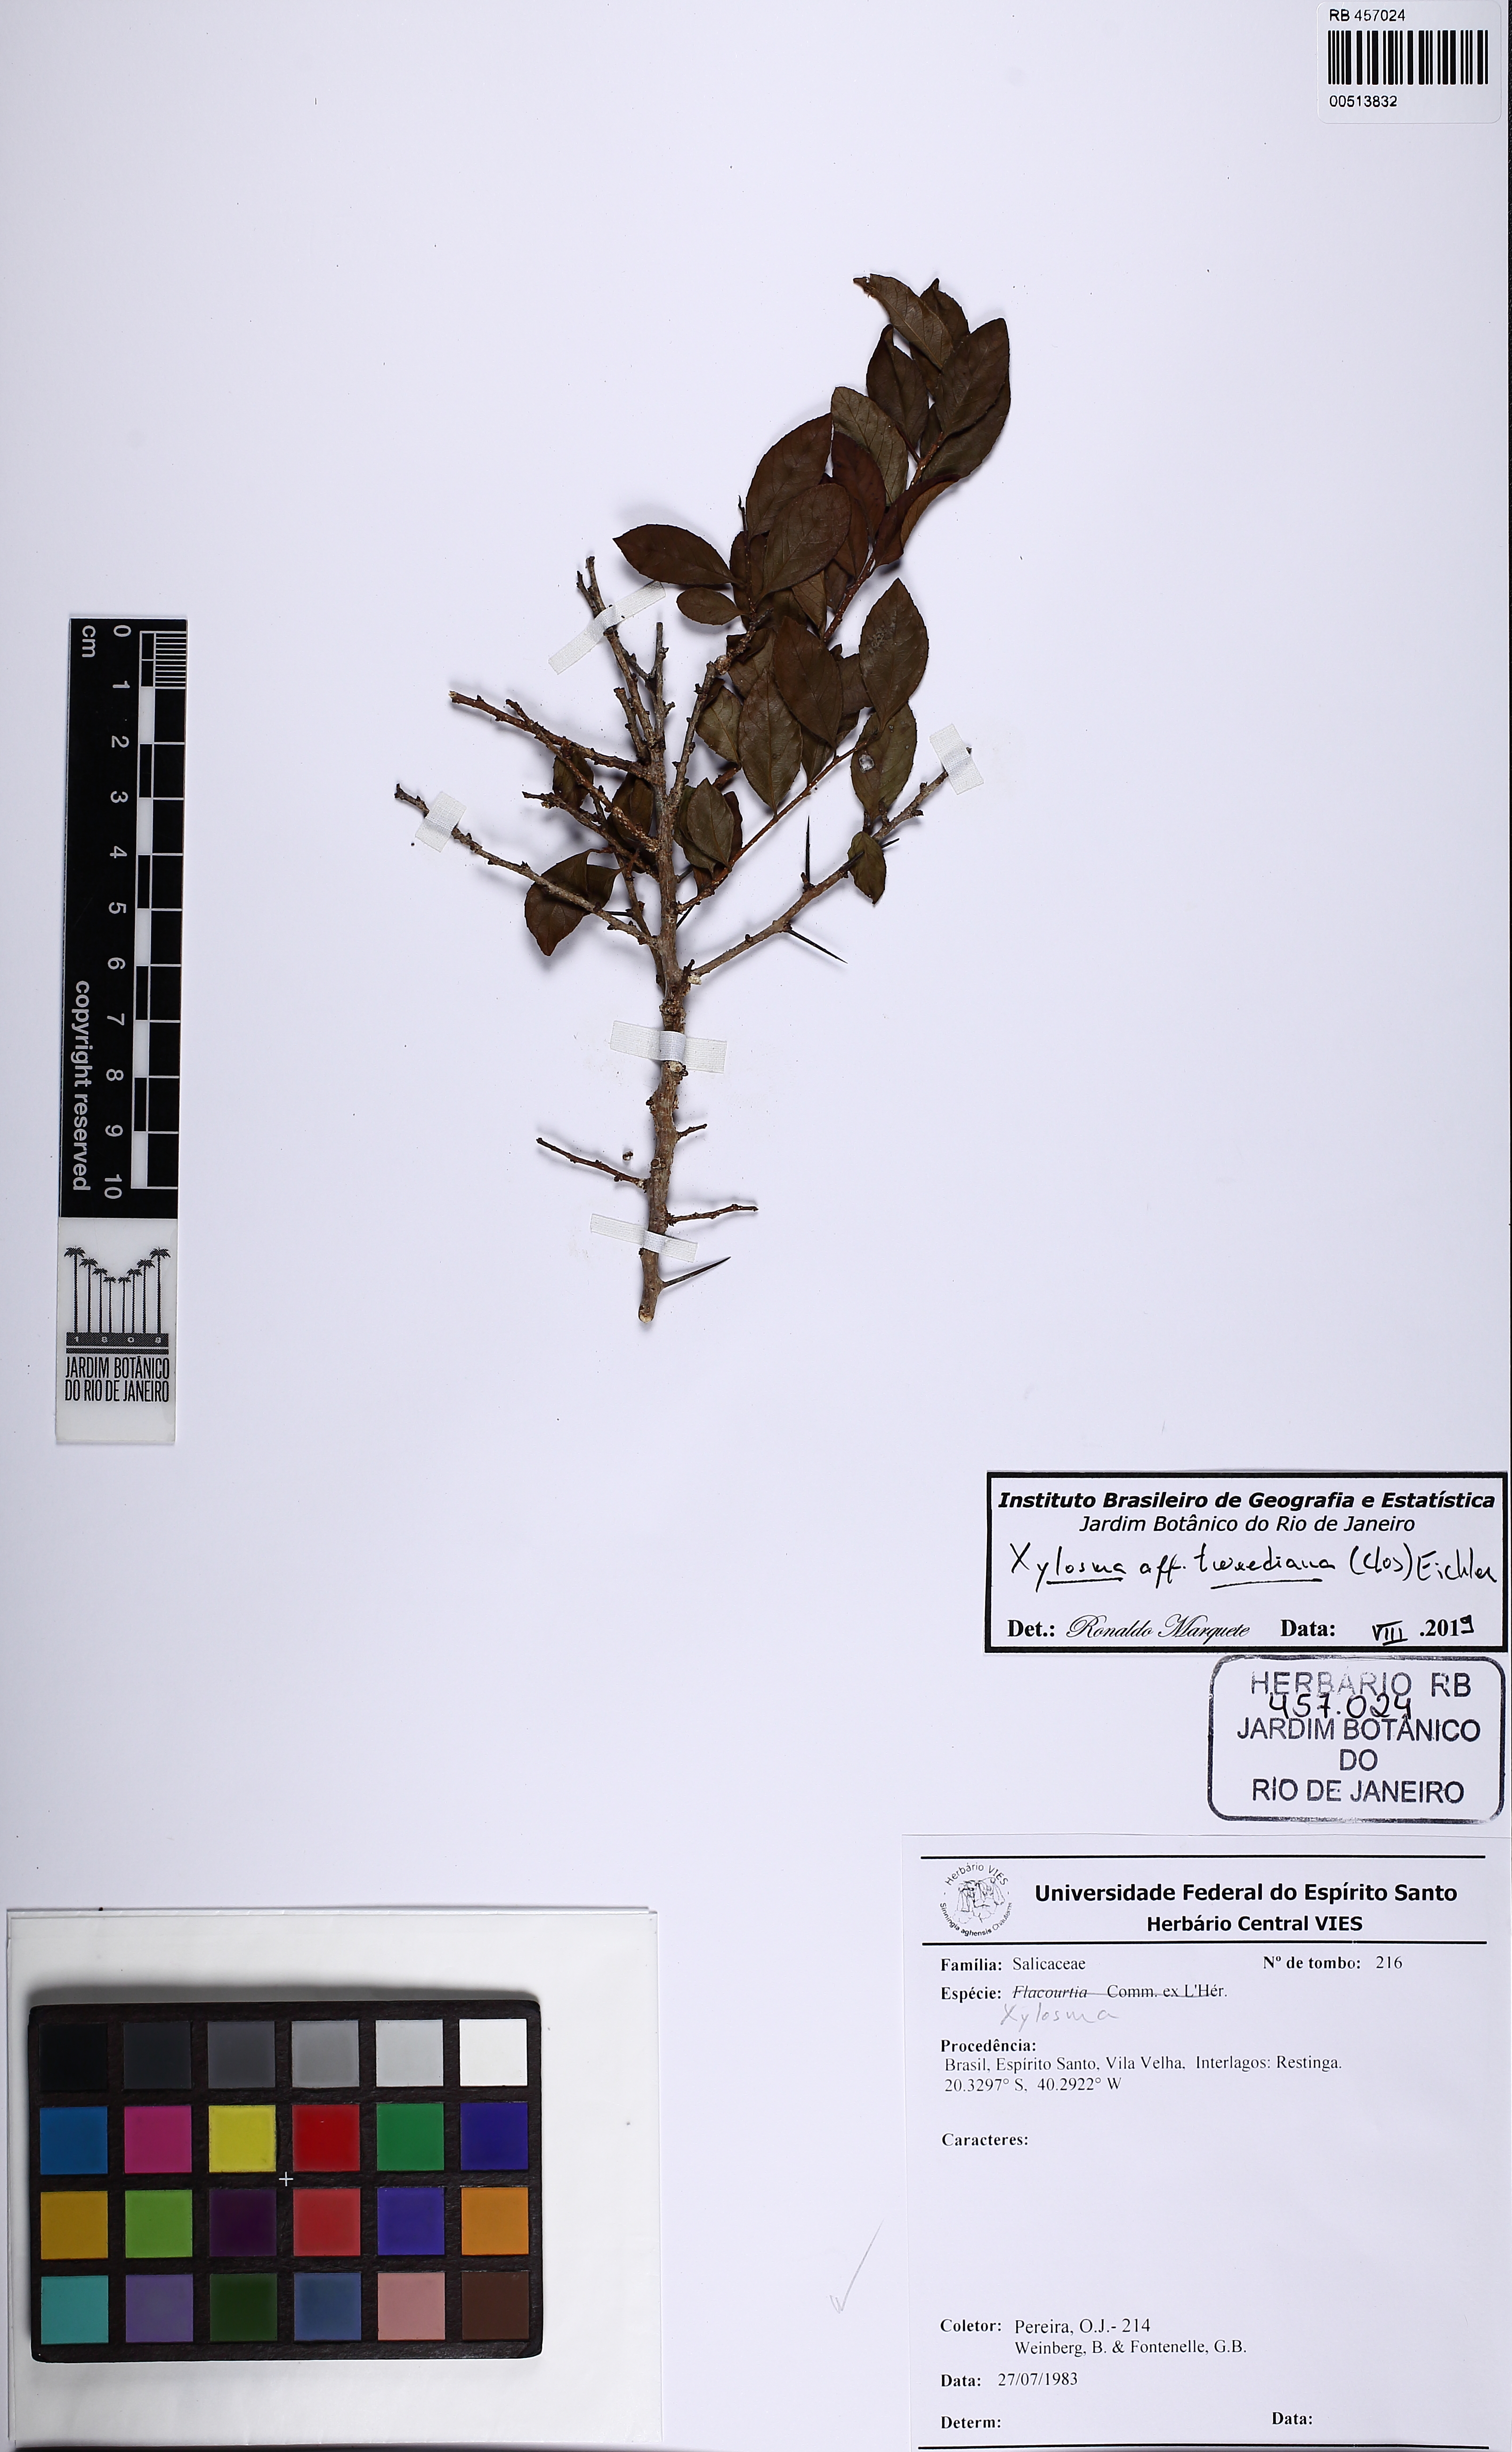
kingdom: Plantae
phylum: Tracheophyta
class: Magnoliopsida
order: Malpighiales
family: Salicaceae
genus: Xylosma
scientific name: Xylosma tweediana
